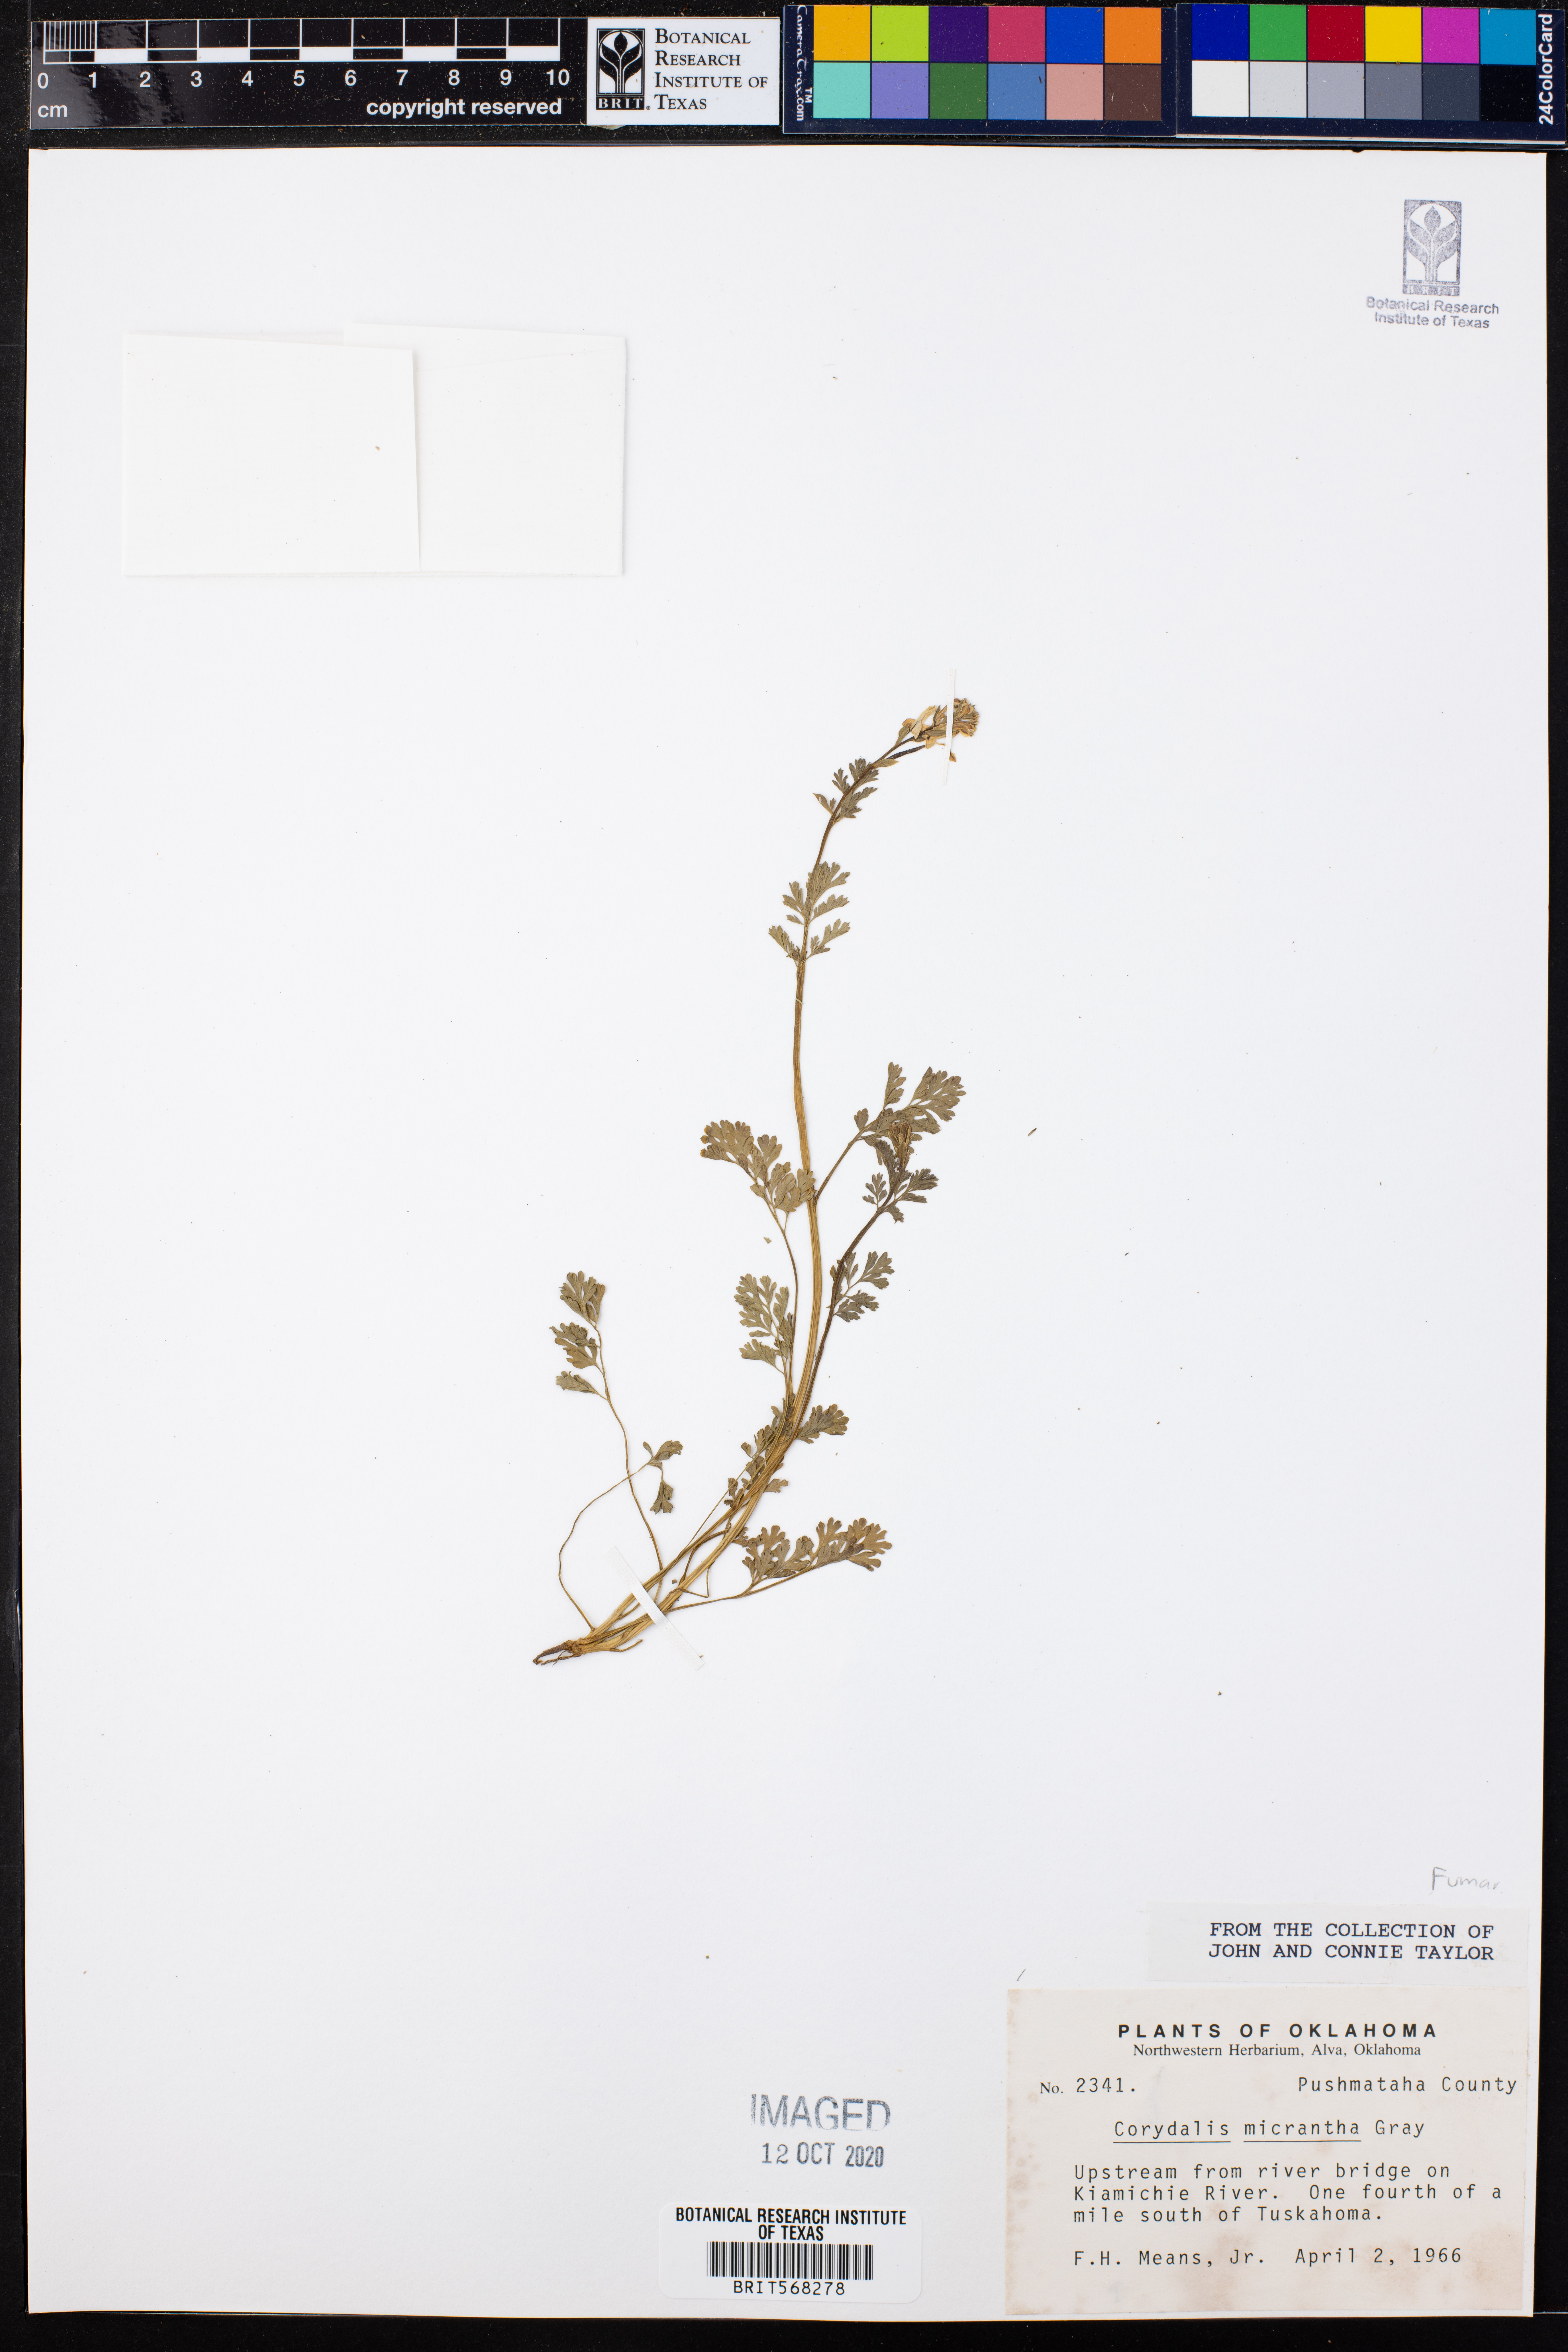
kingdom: Plantae
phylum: Tracheophyta
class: Magnoliopsida
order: Ranunculales
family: Papaveraceae
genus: Corydalis
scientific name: Corydalis micrantha
